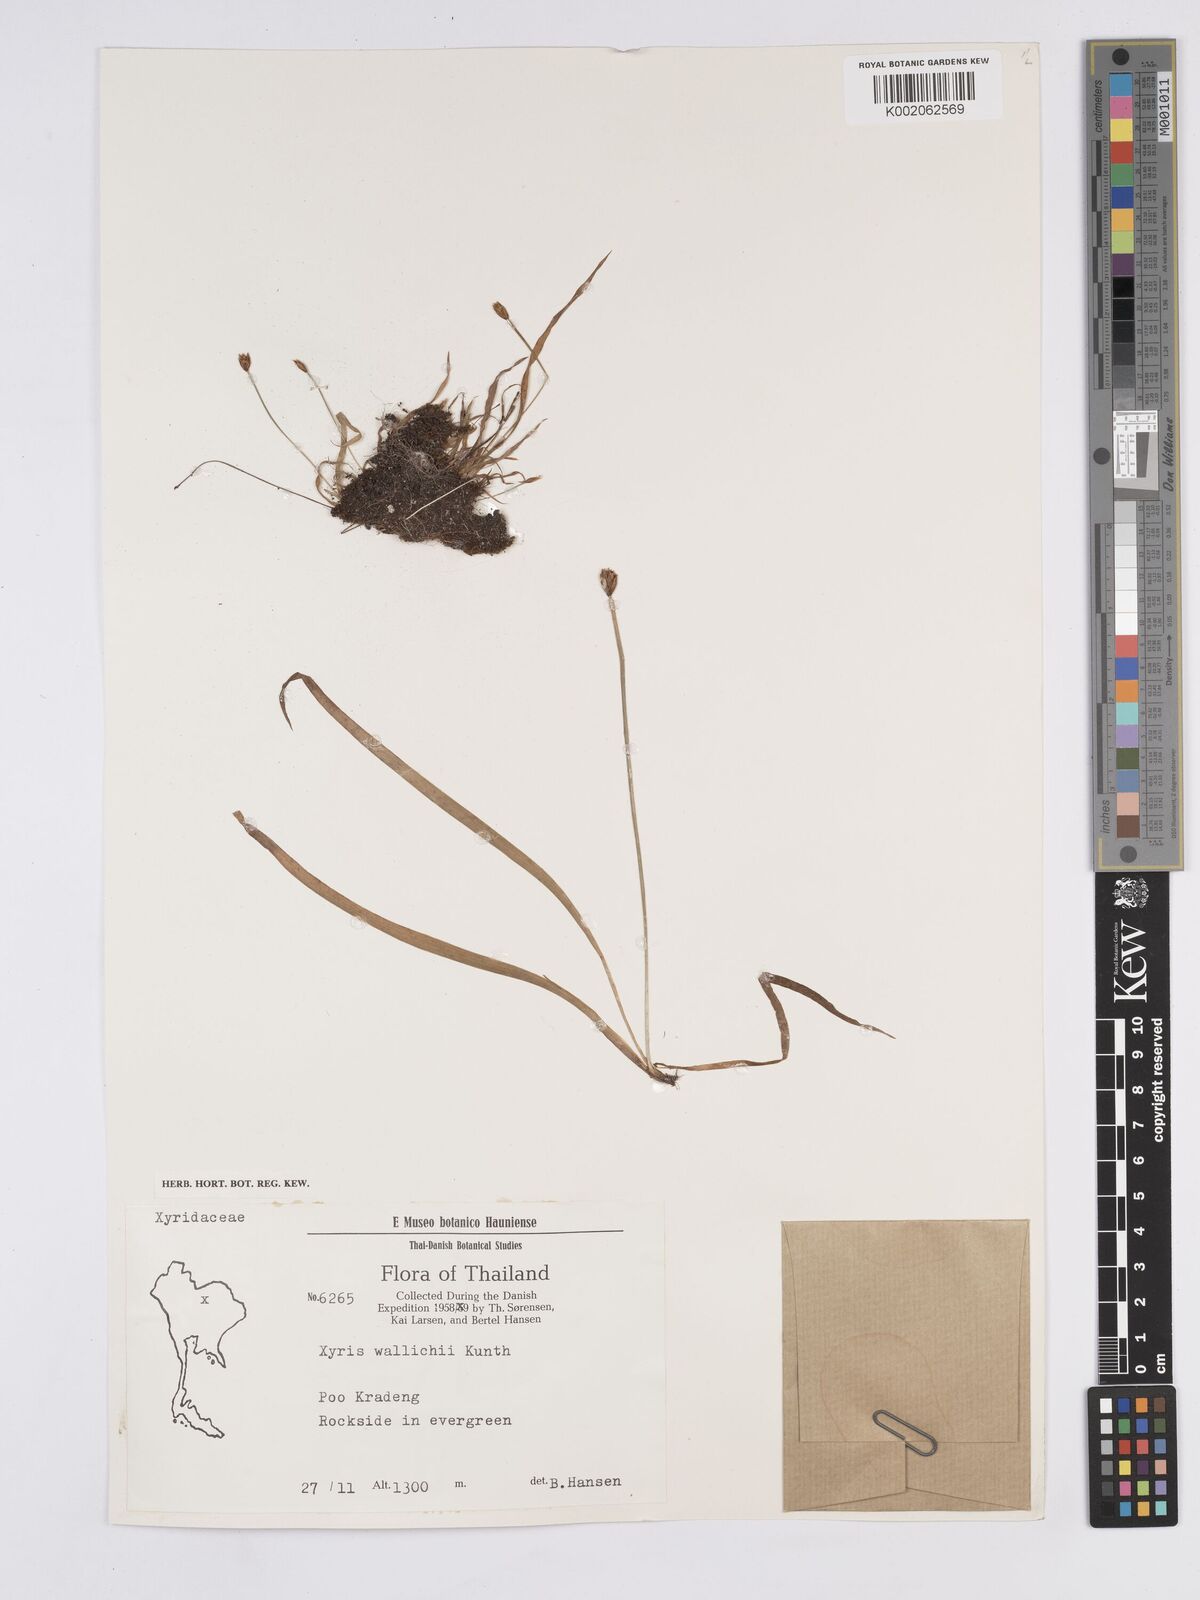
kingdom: Plantae
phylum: Tracheophyta
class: Liliopsida
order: Poales
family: Xyridaceae
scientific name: Xyridaceae
